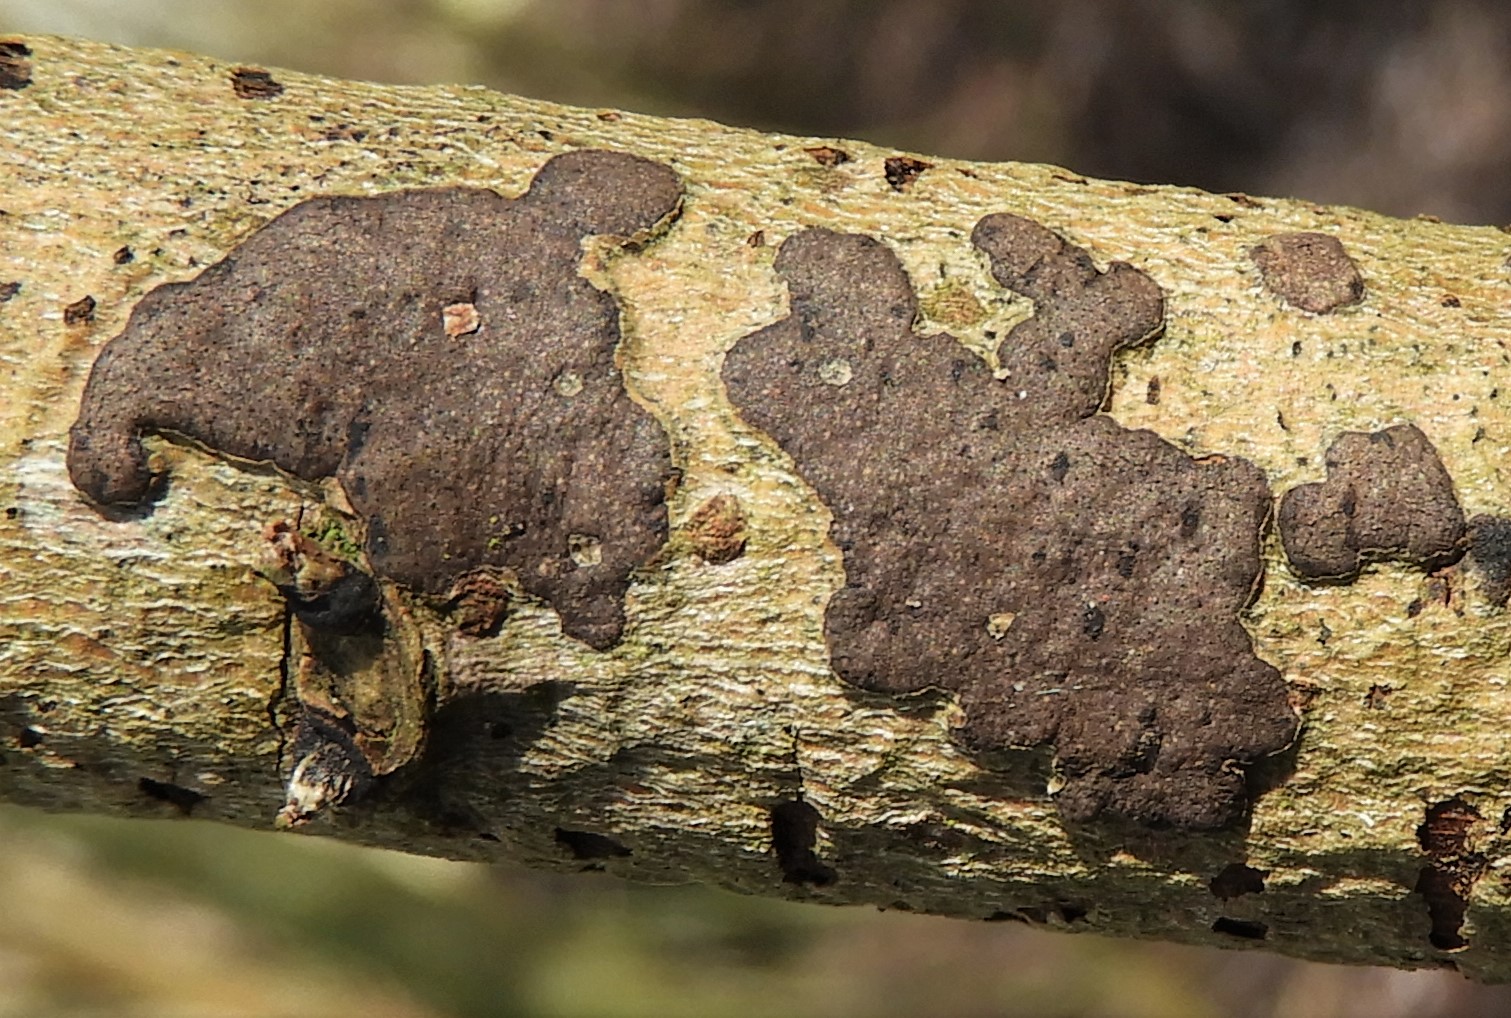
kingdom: Fungi
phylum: Ascomycota
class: Sordariomycetes
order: Xylariales
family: Diatrypaceae
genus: Diatrype
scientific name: Diatrype bullata
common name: pile-kulskorpe
